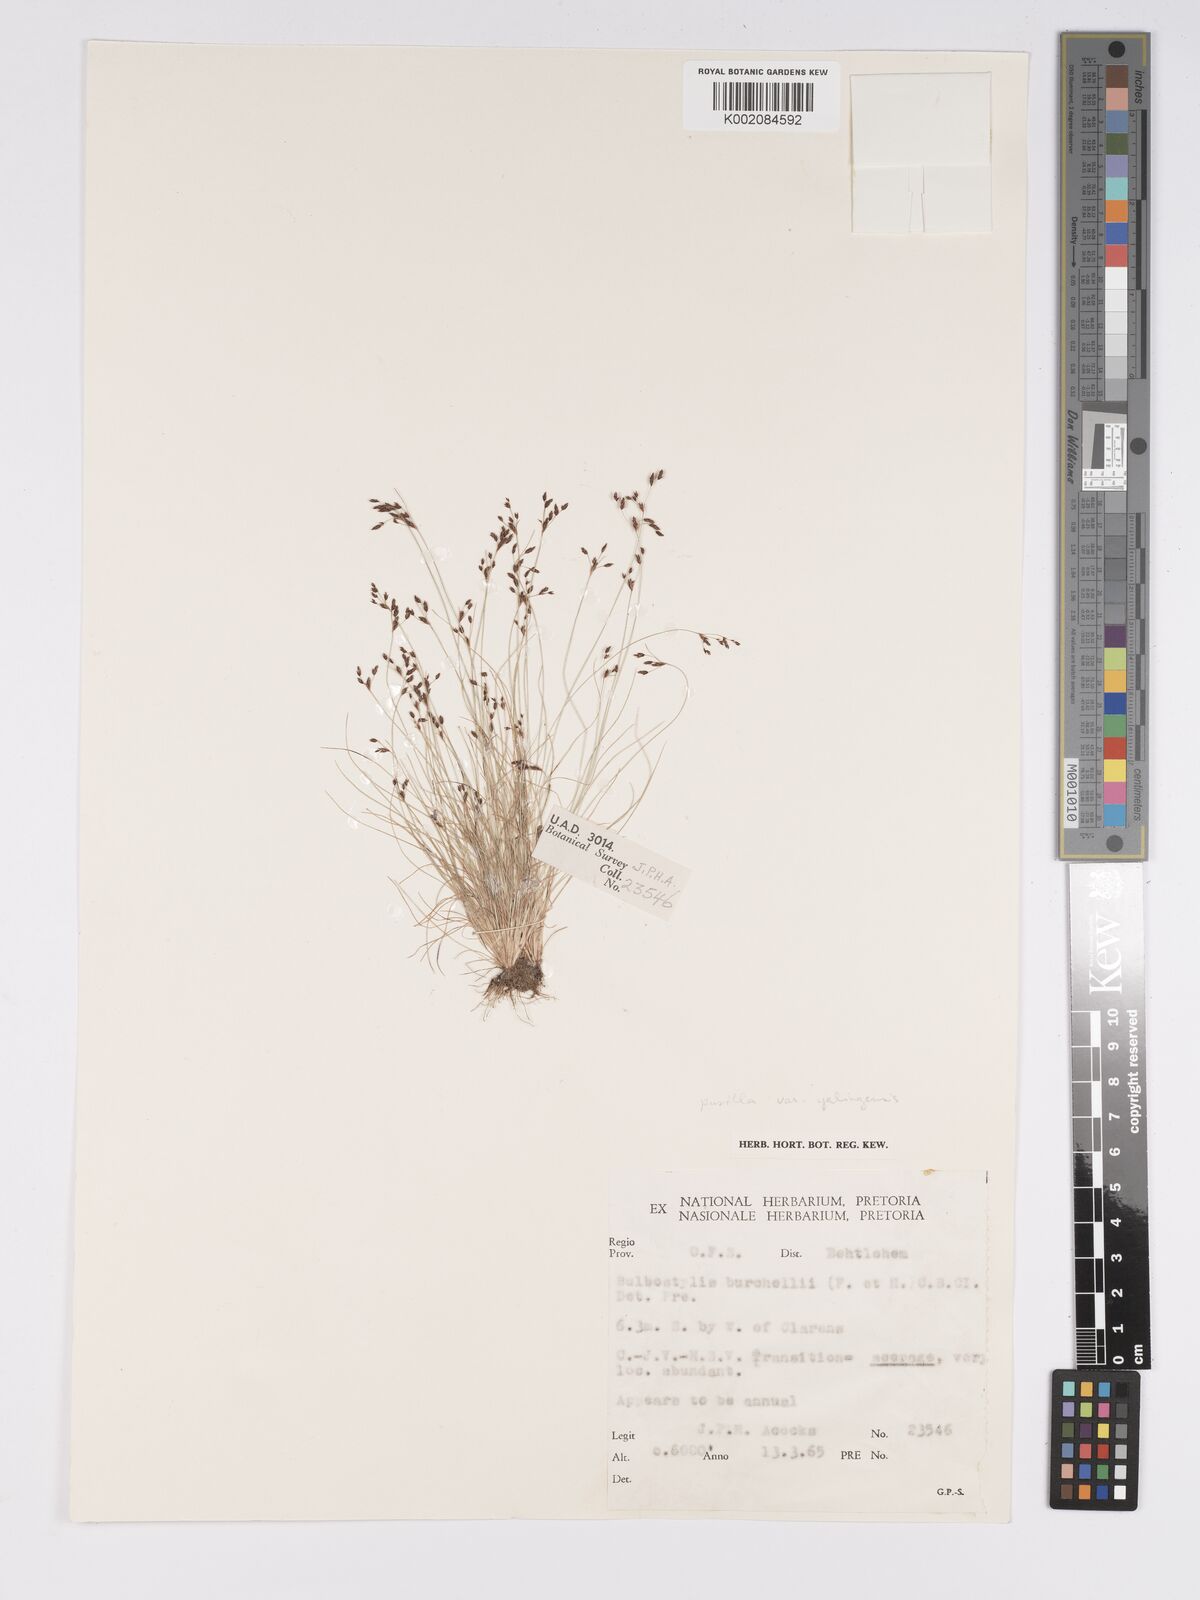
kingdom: Plantae
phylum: Tracheophyta
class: Liliopsida
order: Poales
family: Cyperaceae
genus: Bulbostylis
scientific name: Bulbostylis truncata
